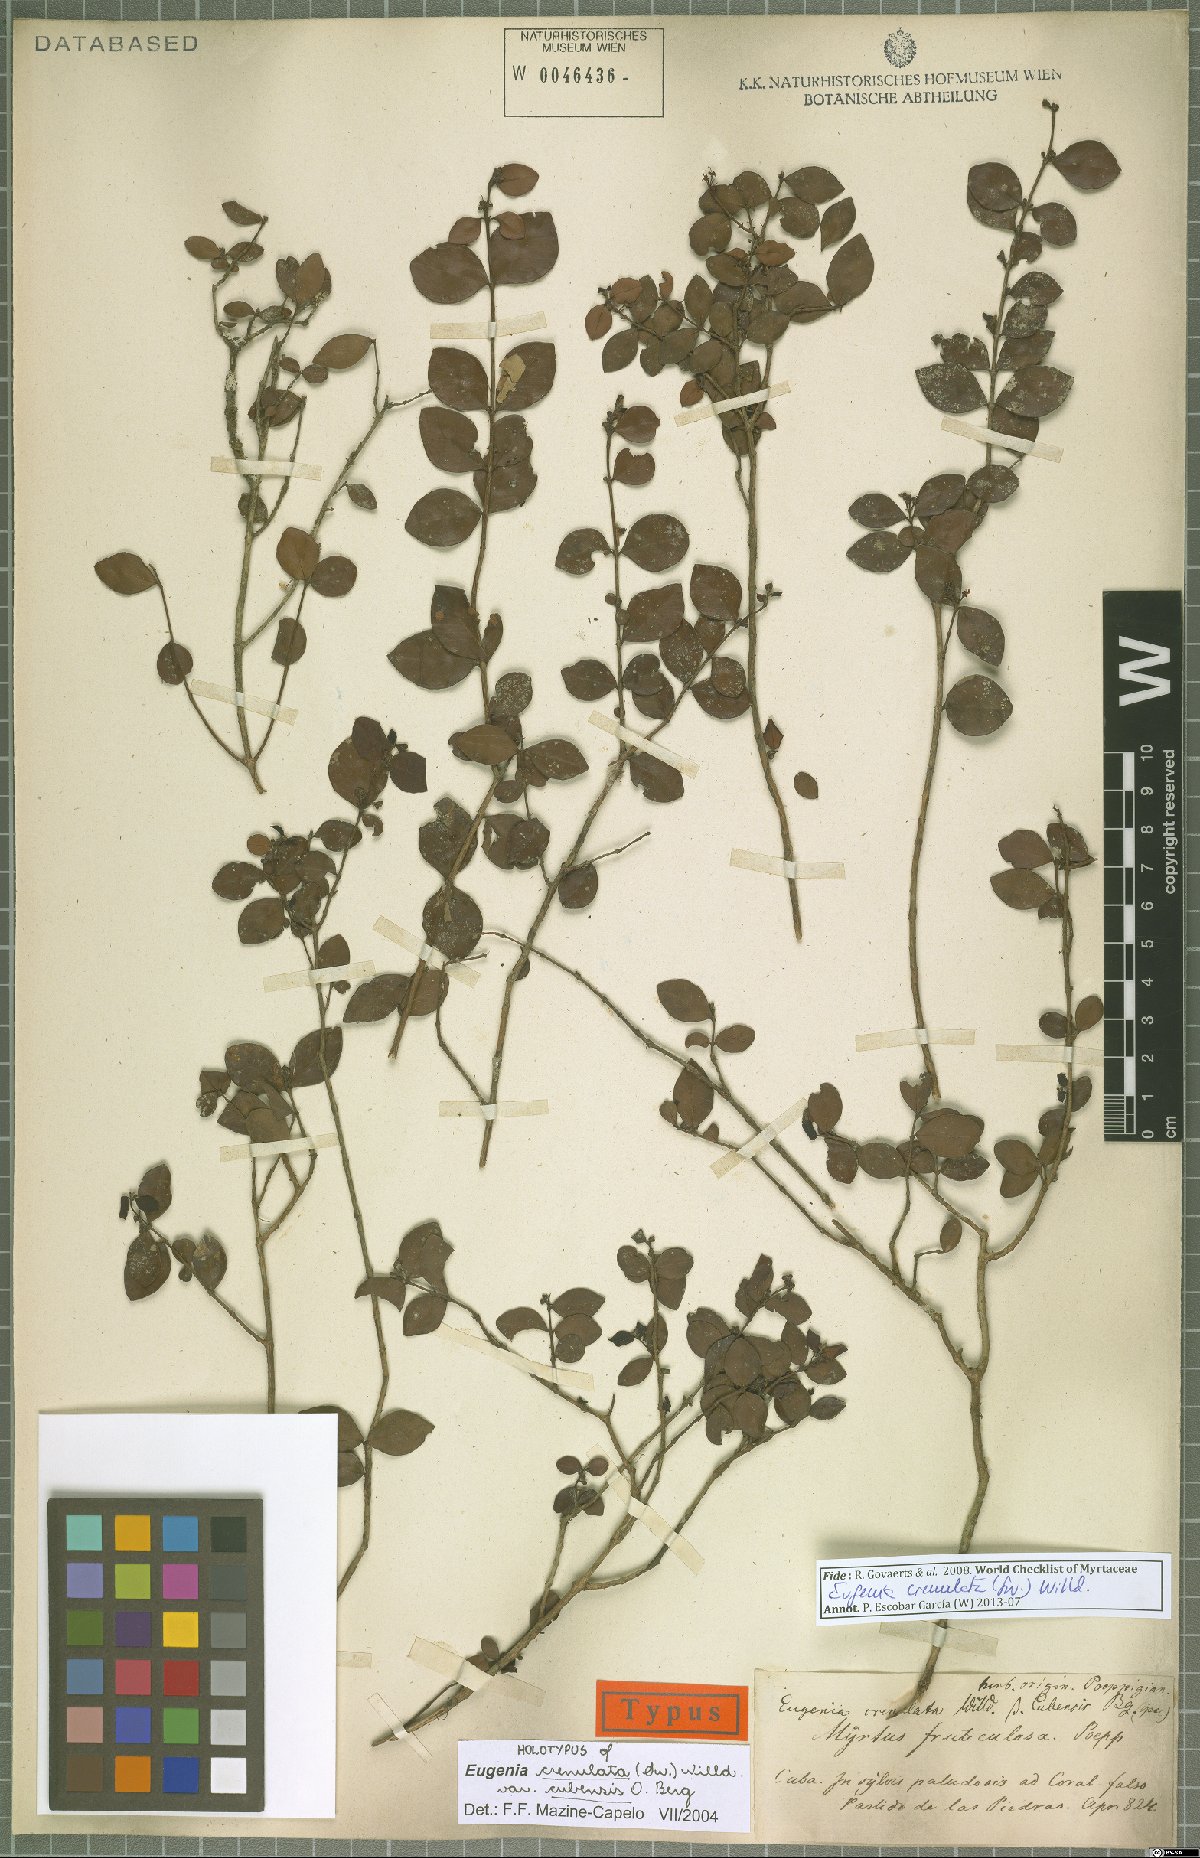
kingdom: Plantae
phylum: Tracheophyta
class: Magnoliopsida
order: Myrtales
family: Myrtaceae
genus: Eugenia
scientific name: Eugenia crenulata
